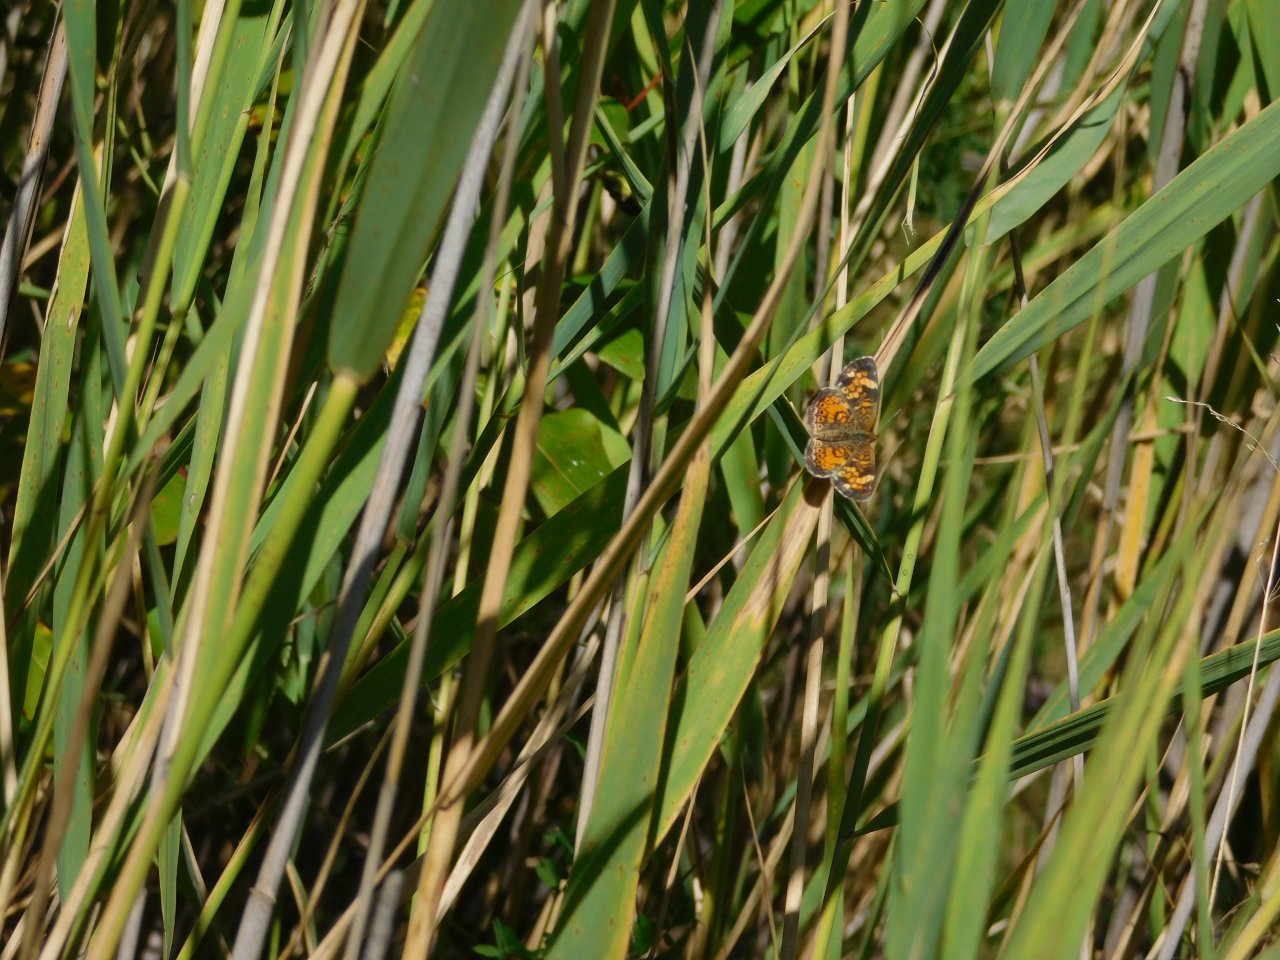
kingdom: Animalia
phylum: Arthropoda
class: Insecta
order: Lepidoptera
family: Nymphalidae
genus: Phyciodes
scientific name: Phyciodes tharos
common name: Pearl Crescent
